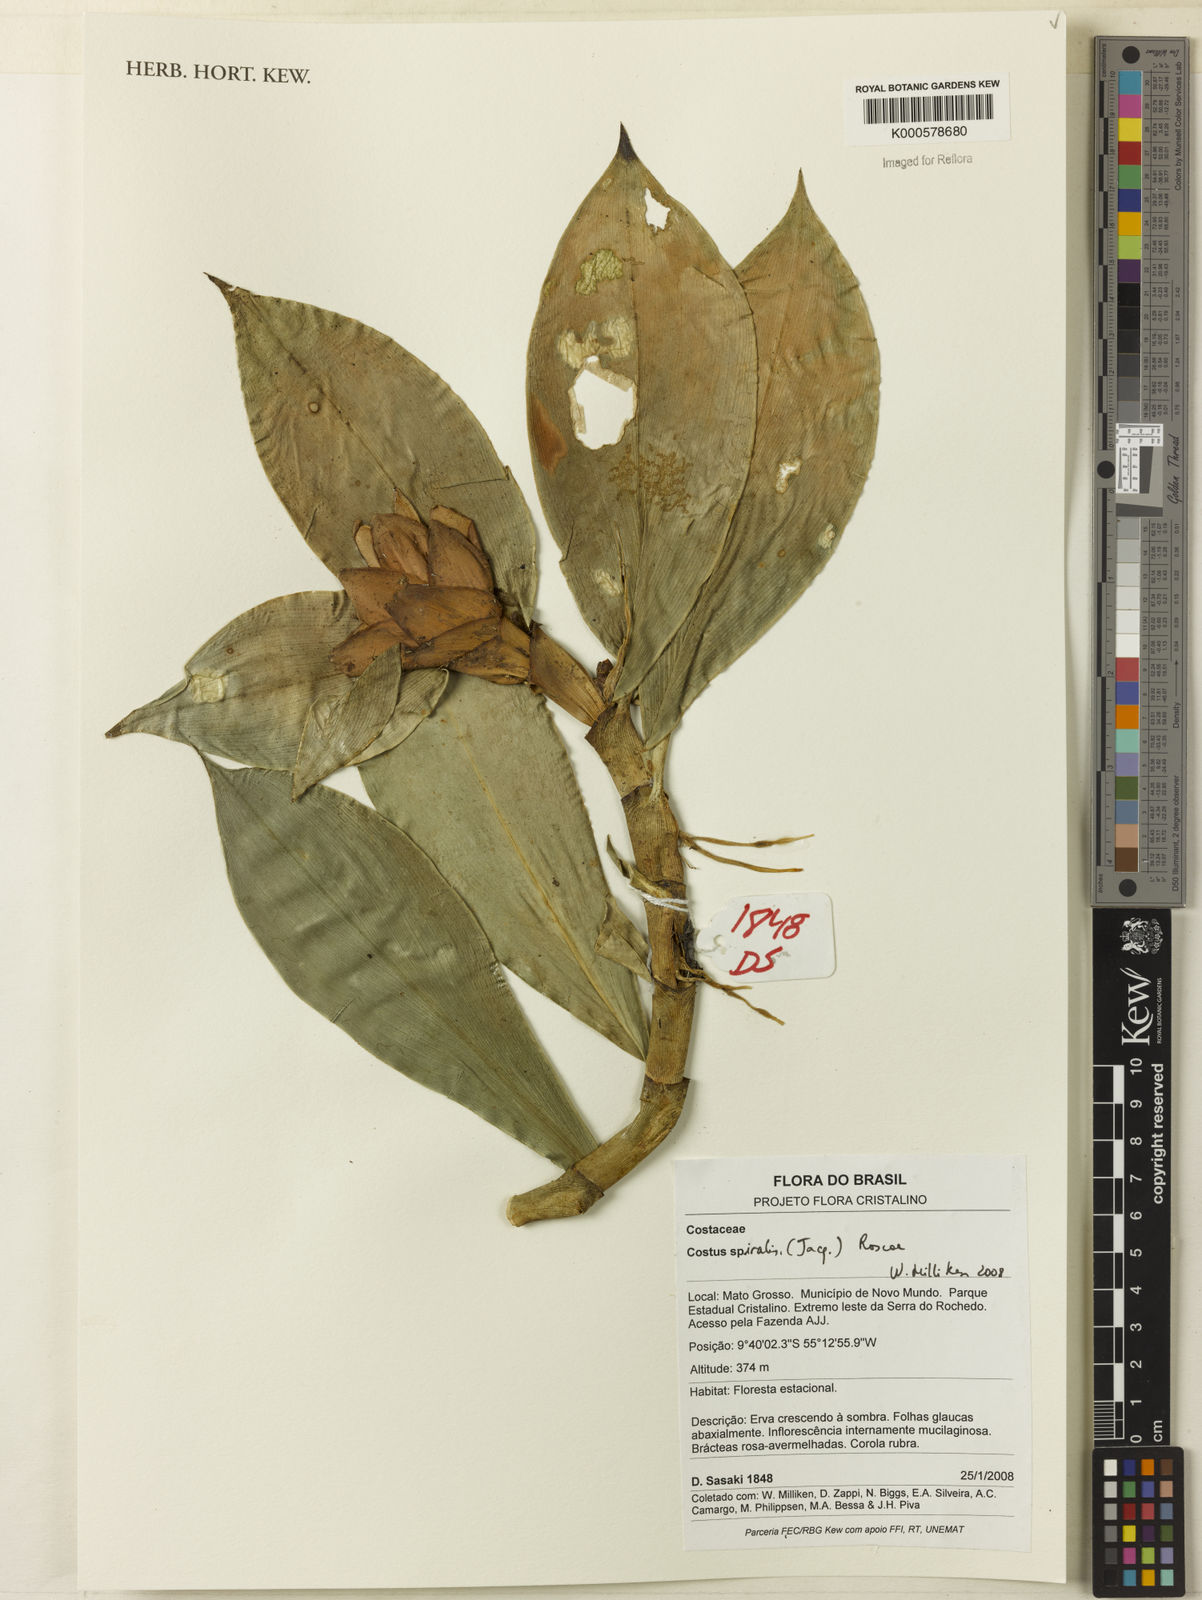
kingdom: Plantae
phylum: Tracheophyta
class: Liliopsida
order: Zingiberales
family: Costaceae
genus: Costus
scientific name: Costus spiralis
